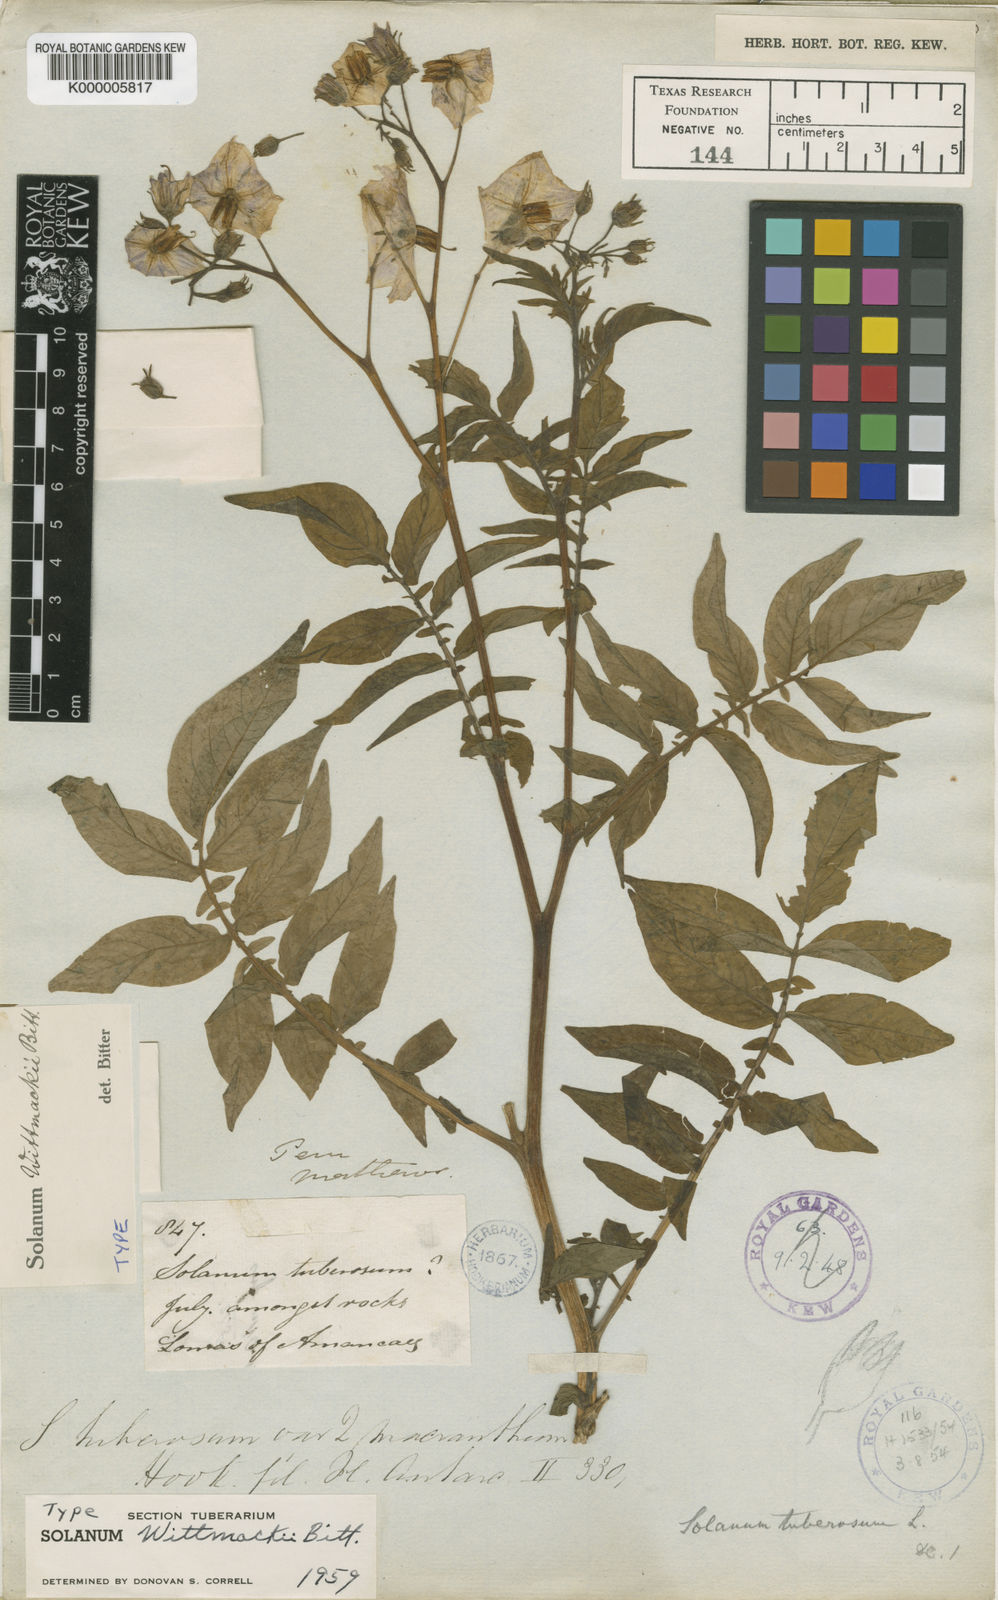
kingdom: Plantae
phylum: Tracheophyta
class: Magnoliopsida
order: Solanales
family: Solanaceae
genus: Solanum
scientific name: Solanum wittmackii
